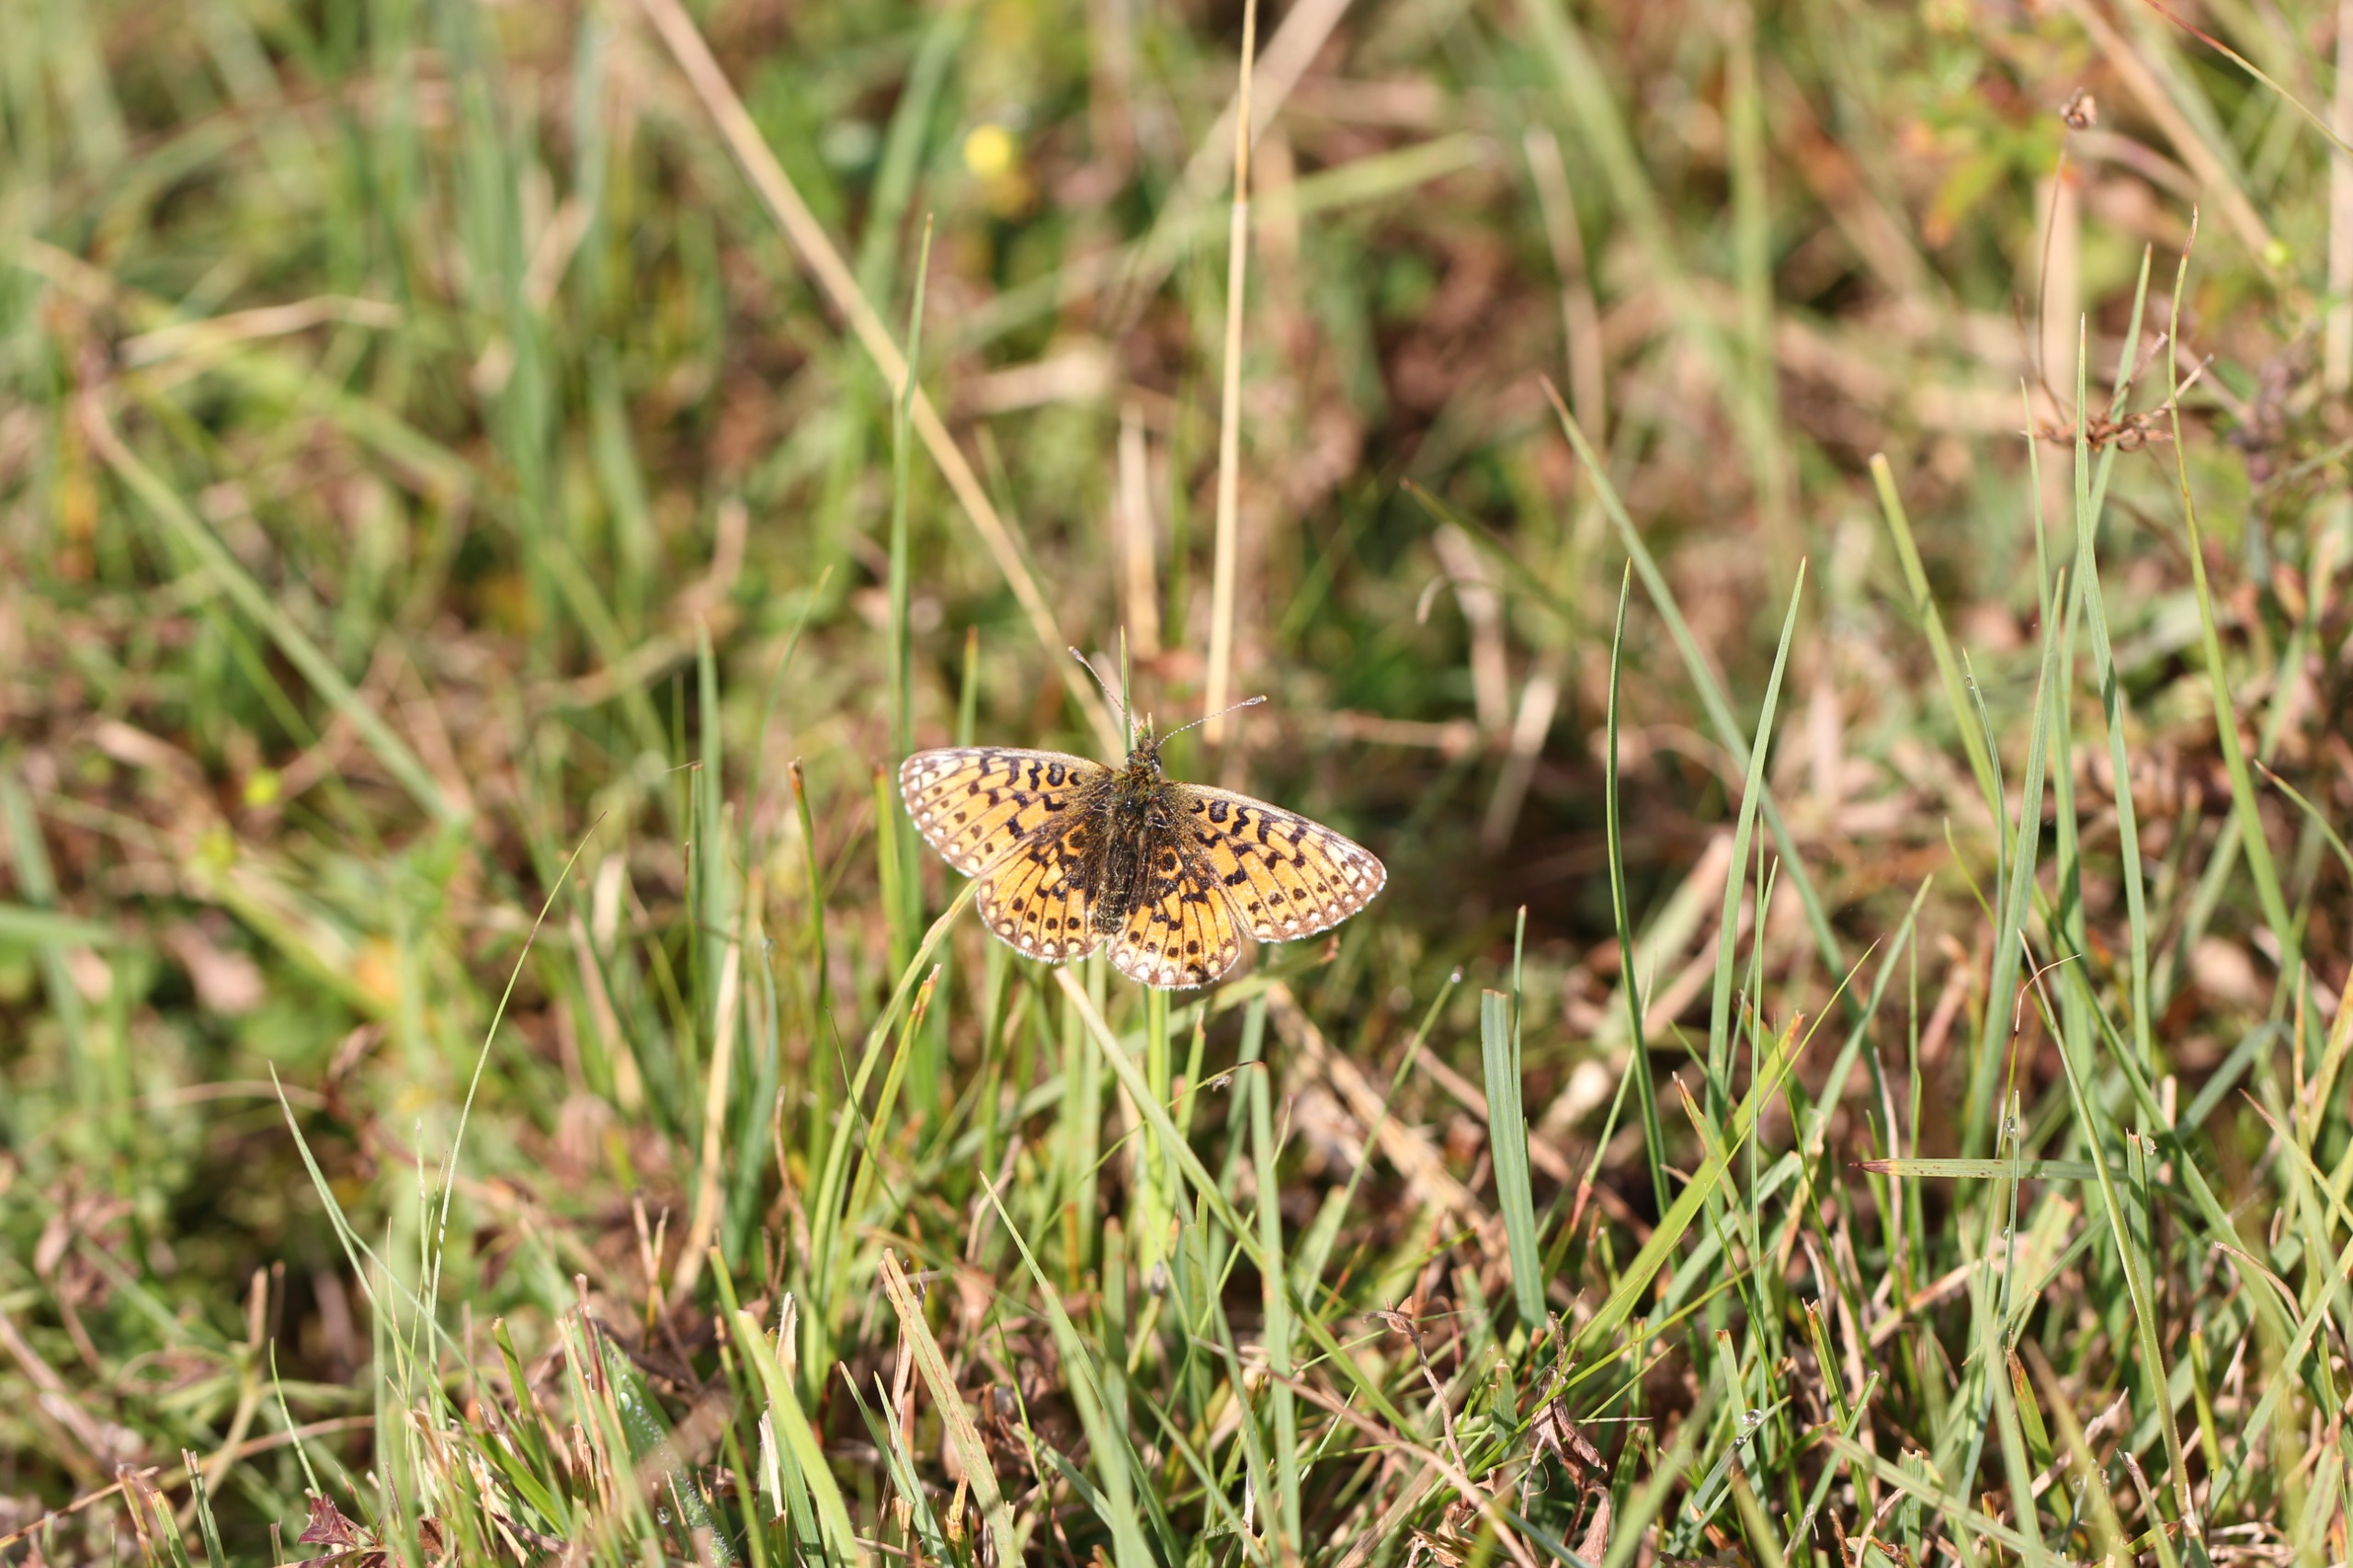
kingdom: Animalia
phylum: Arthropoda
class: Insecta
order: Lepidoptera
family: Nymphalidae
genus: Boloria
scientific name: Boloria selene
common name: Brunlig perlemorsommerfugl
